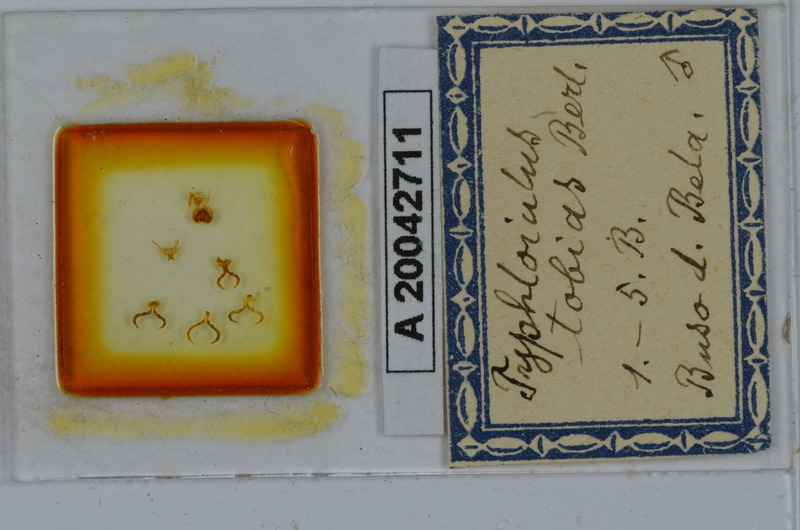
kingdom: Animalia
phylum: Arthropoda
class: Diplopoda
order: Julida
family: Julidae
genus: Stygiiulus
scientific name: Stygiiulus tobias
